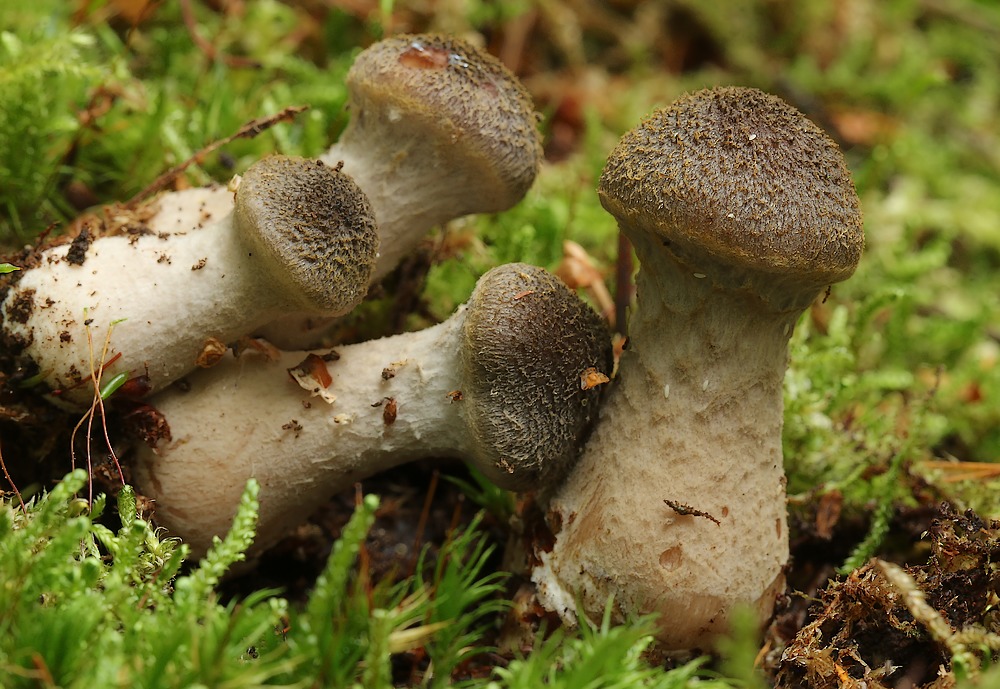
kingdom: Fungi
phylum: Basidiomycota
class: Agaricomycetes
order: Agaricales
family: Physalacriaceae
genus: Armillaria
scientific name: Armillaria lutea
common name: køllestokket honningsvamp
